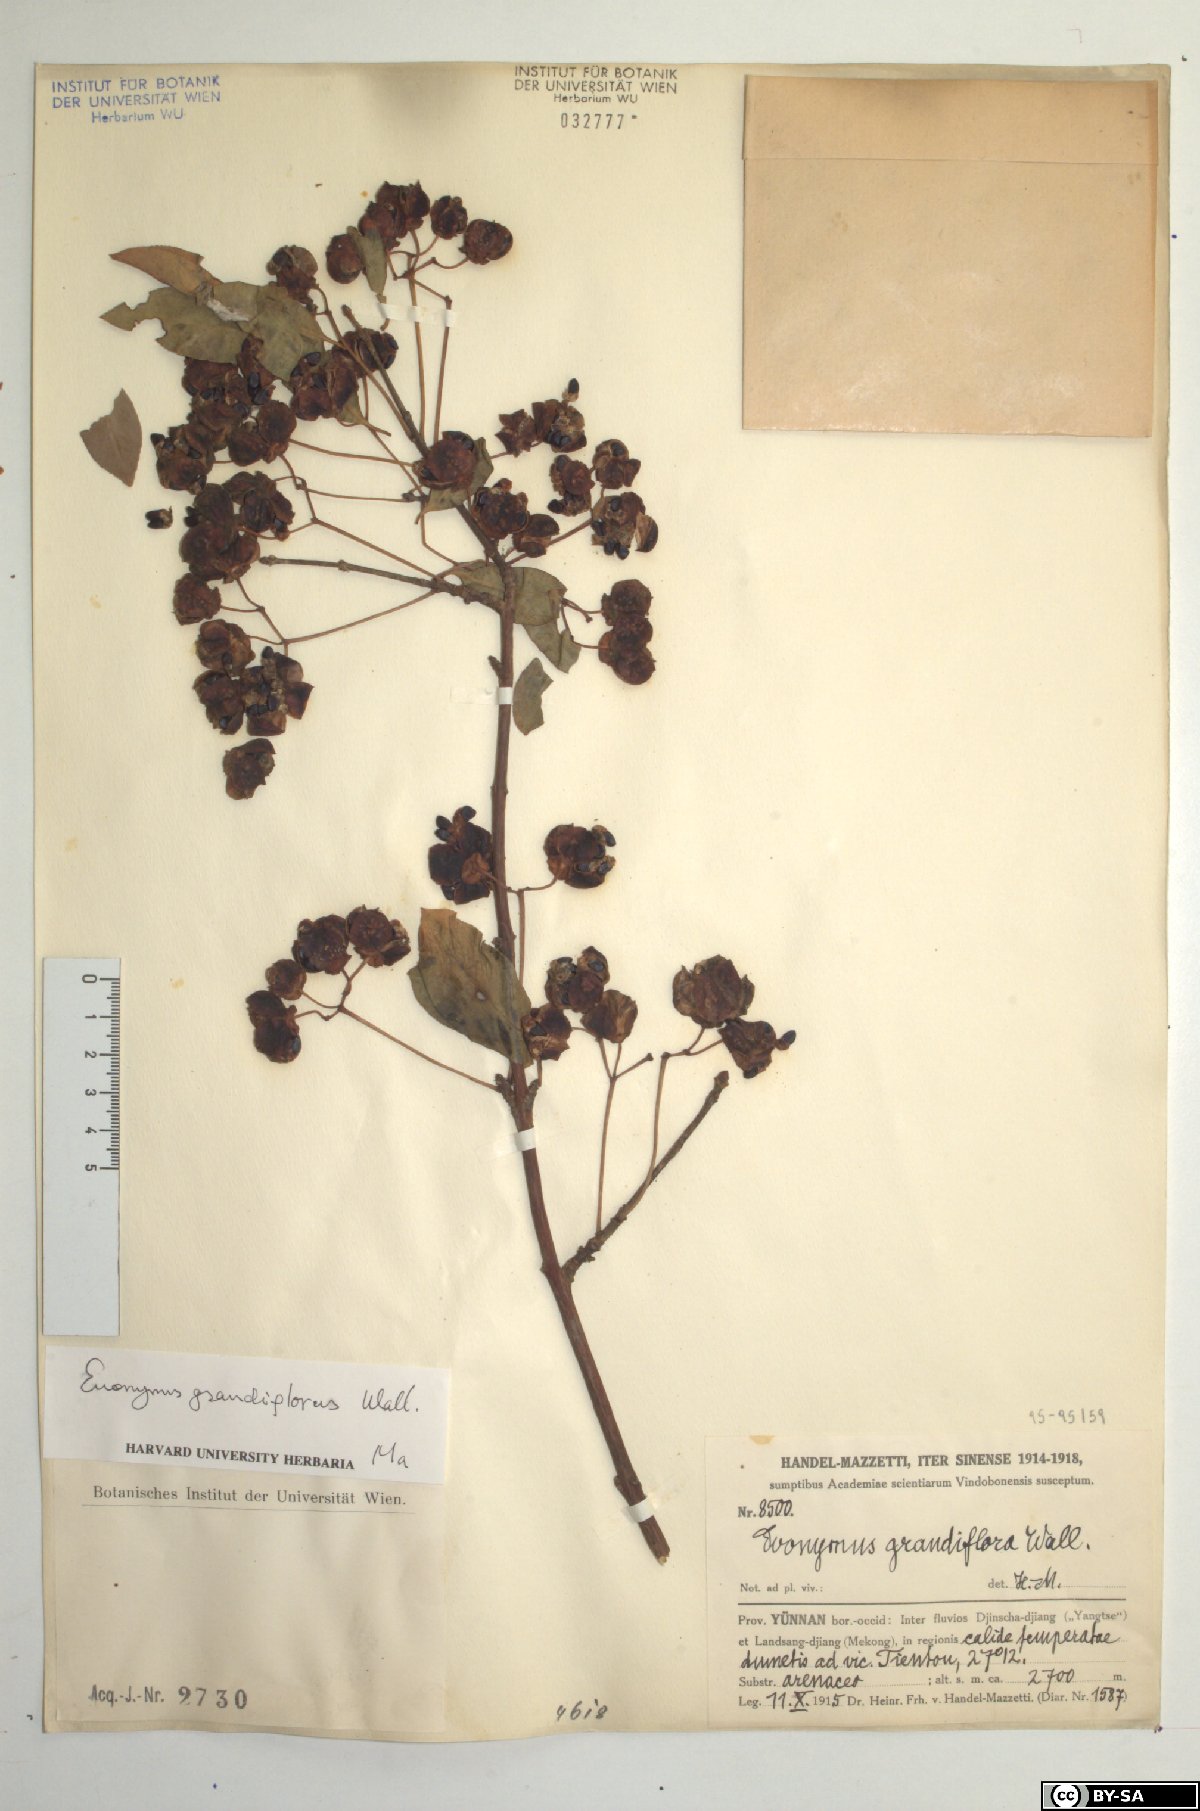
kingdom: Plantae
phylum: Tracheophyta
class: Magnoliopsida
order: Celastrales
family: Celastraceae
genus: Euonymus
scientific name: Euonymus grandiflorus
